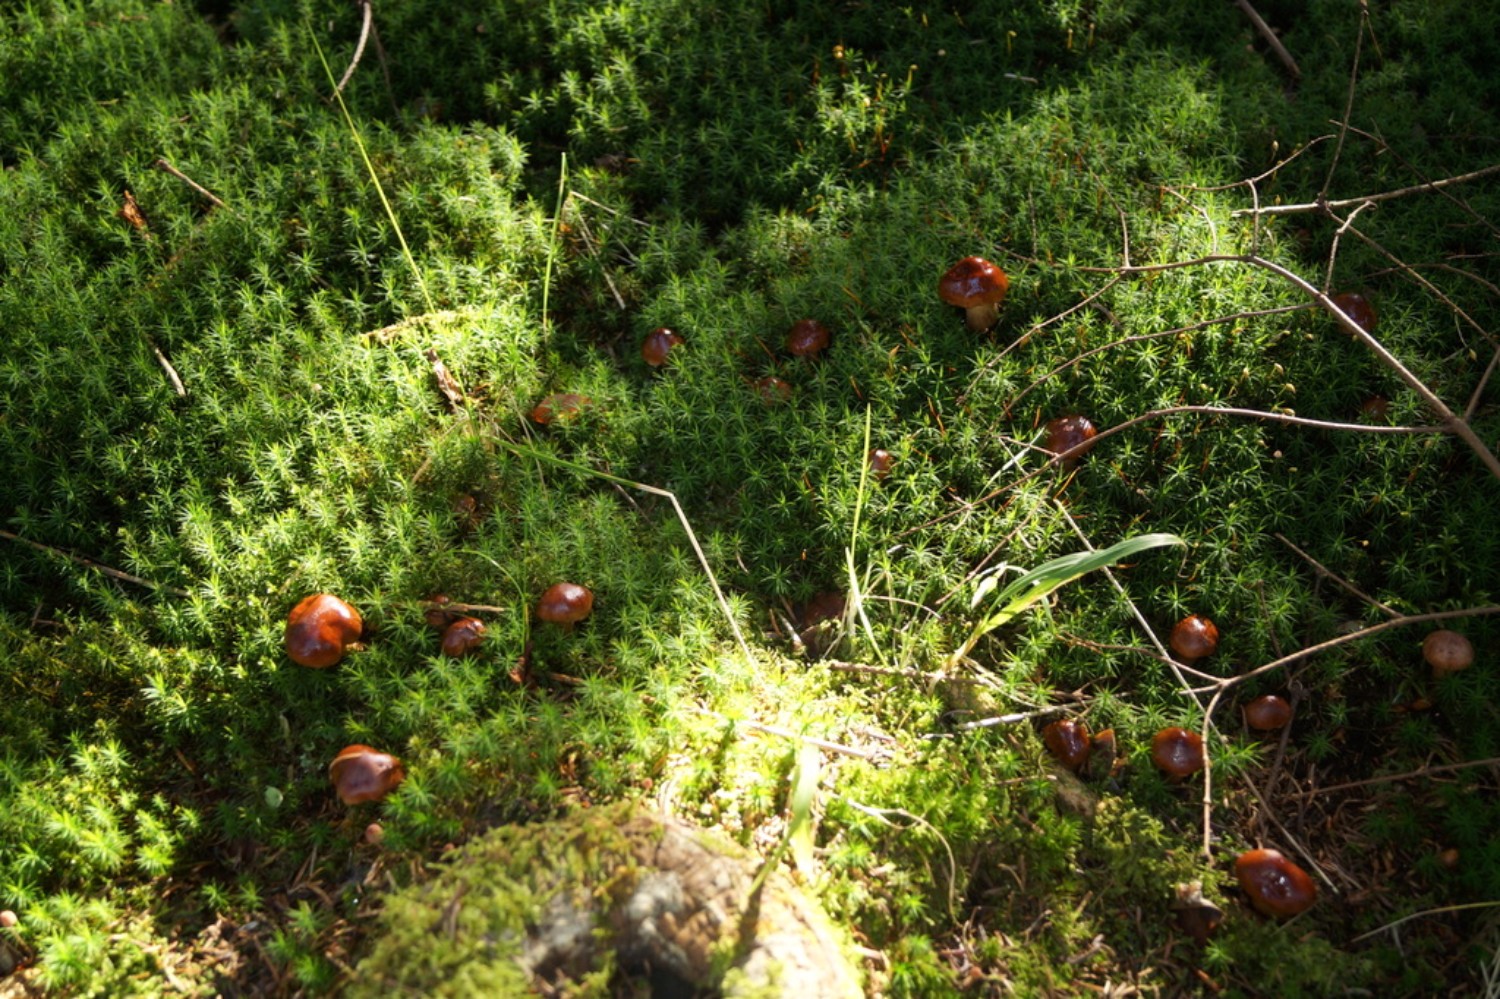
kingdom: Fungi
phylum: Basidiomycota
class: Agaricomycetes
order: Agaricales
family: Tricholomataceae
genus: Tricholoma
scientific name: Tricholoma albobrunneum
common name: kastanie-ridderhat
